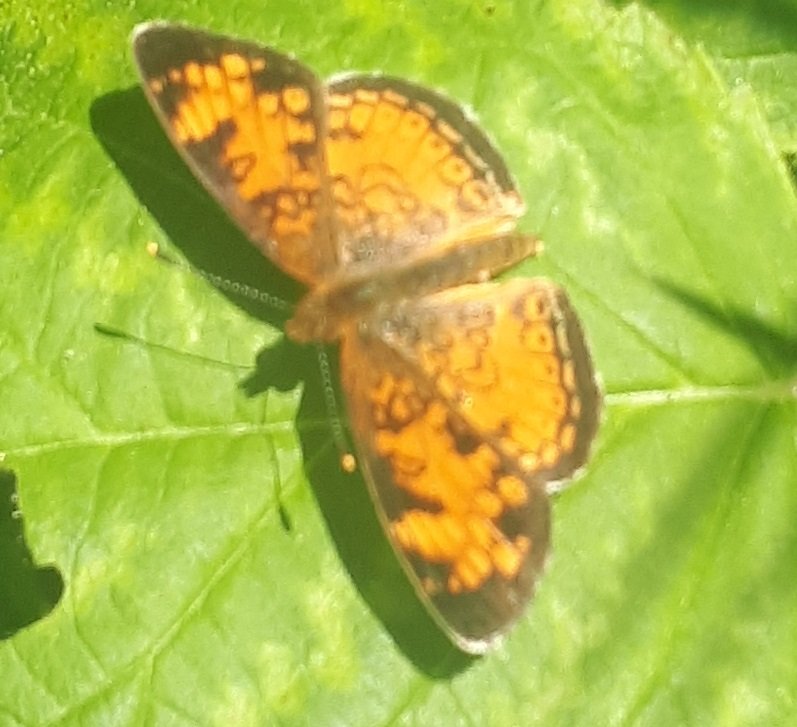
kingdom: Animalia
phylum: Arthropoda
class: Insecta
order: Lepidoptera
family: Nymphalidae
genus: Phyciodes
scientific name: Phyciodes tharos
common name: Northern Crescent
